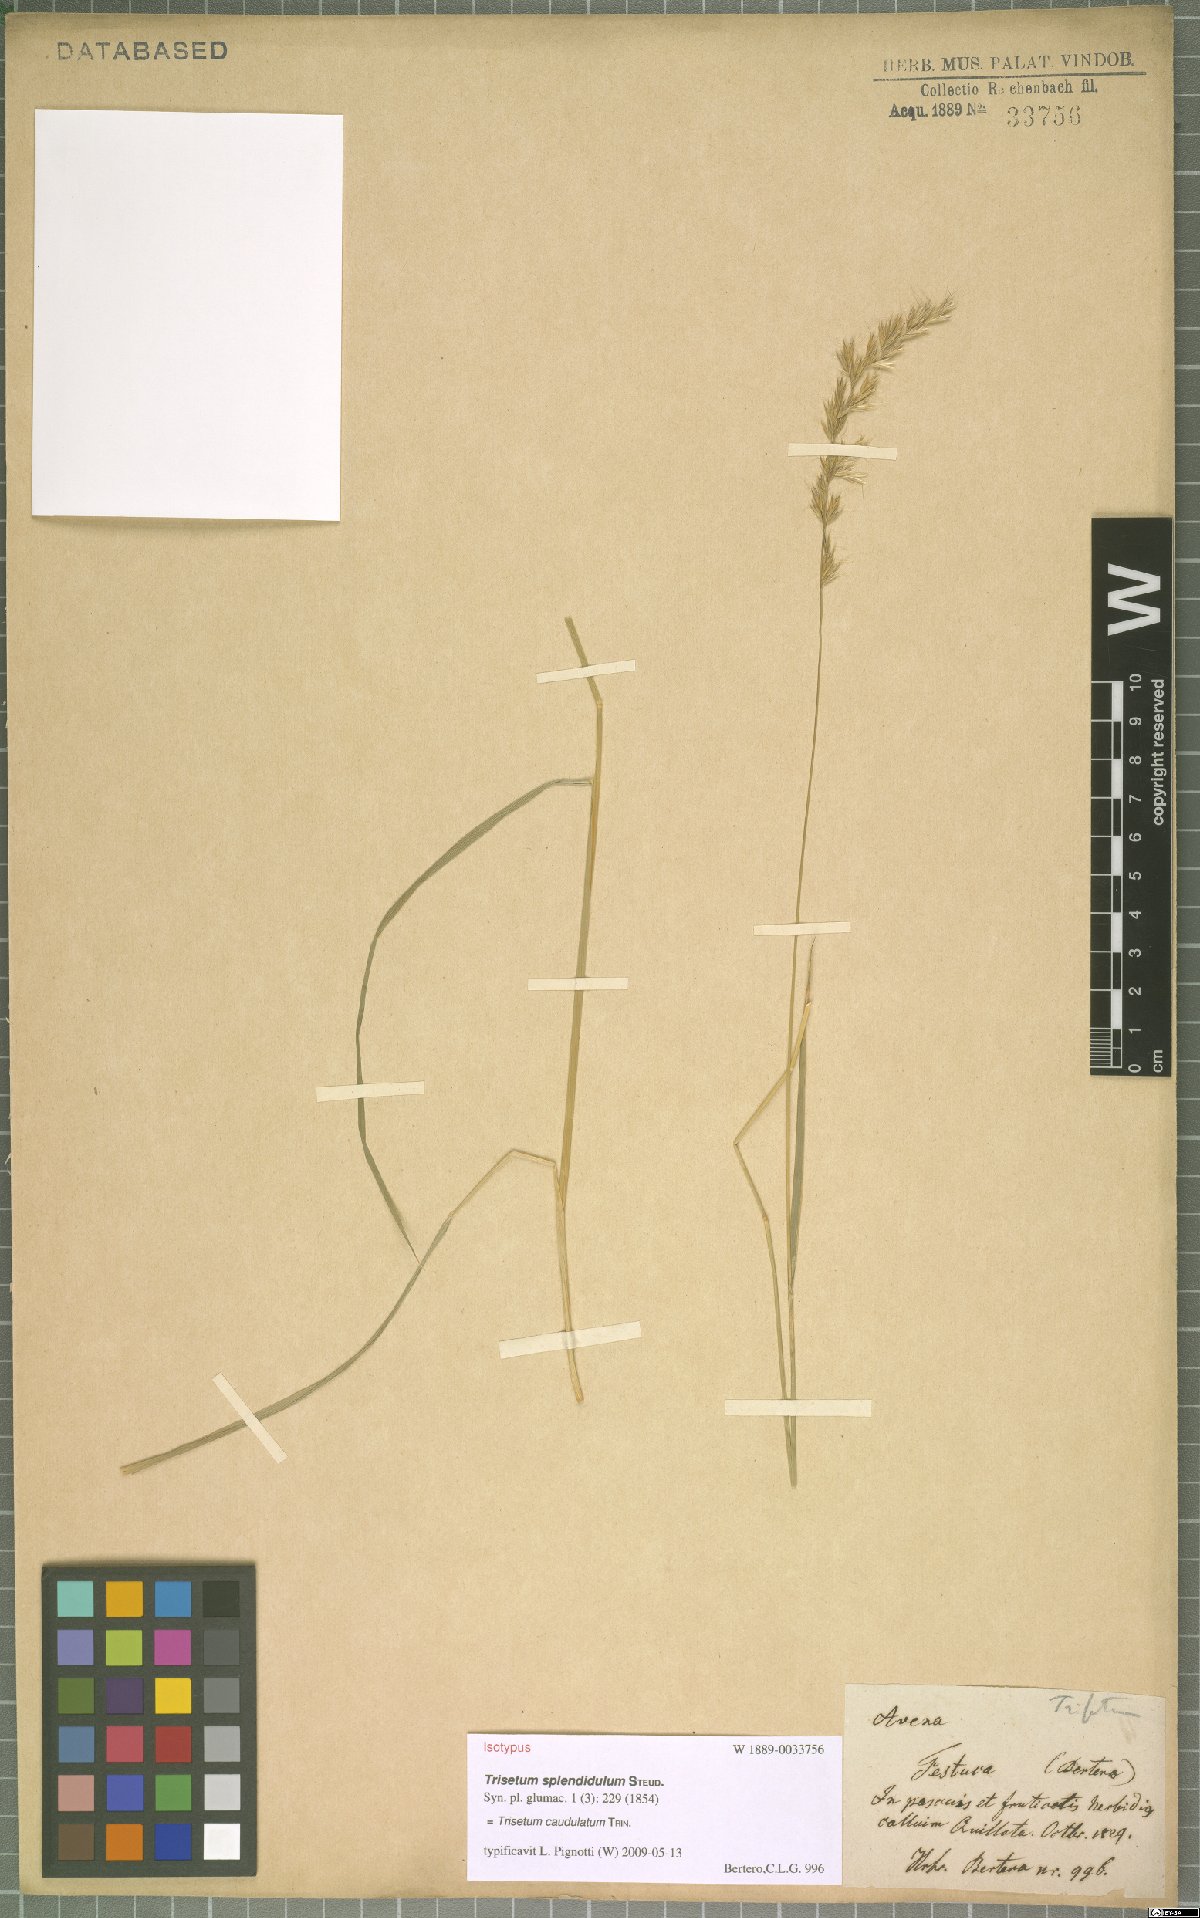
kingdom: Plantae
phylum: Tracheophyta
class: Liliopsida
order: Poales
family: Poaceae
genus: Trisetum
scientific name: Trisetum caudulatum
